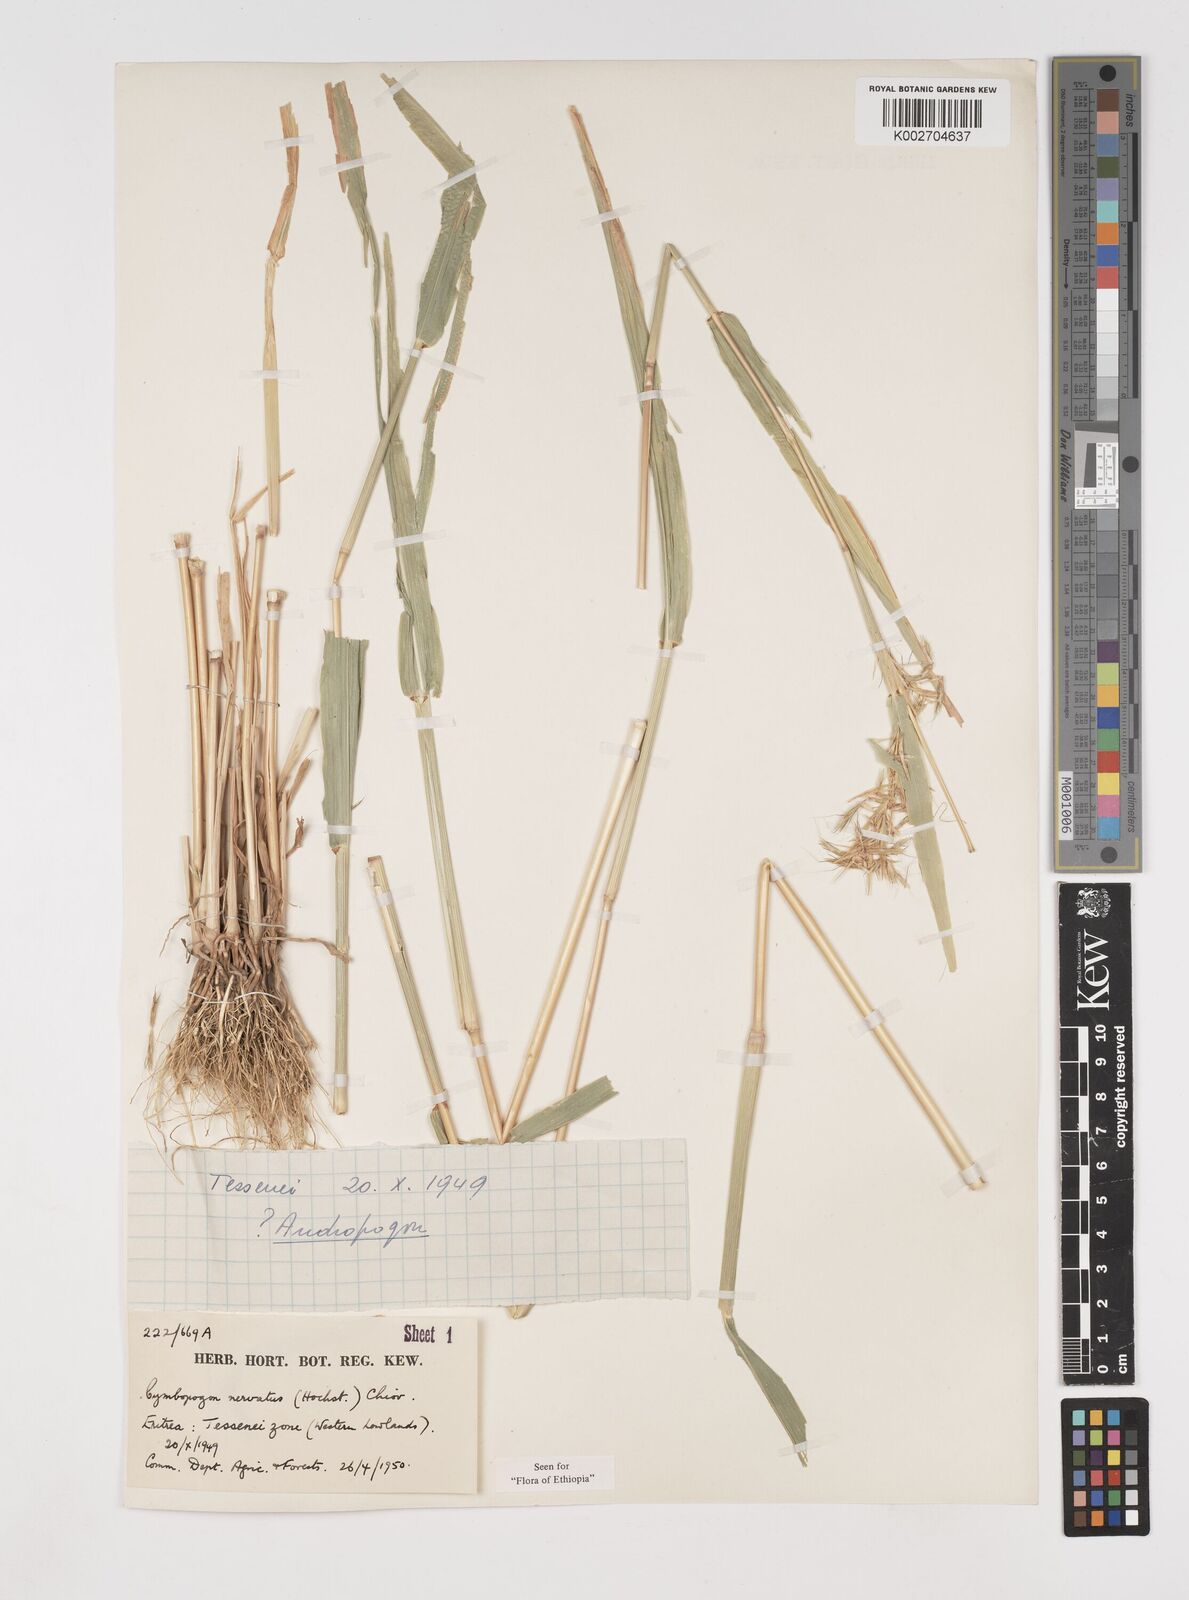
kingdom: Plantae
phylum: Tracheophyta
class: Liliopsida
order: Poales
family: Poaceae
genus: Cymbopogon
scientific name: Cymbopogon nervatus
